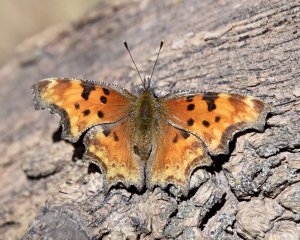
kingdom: Animalia
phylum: Arthropoda
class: Insecta
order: Lepidoptera
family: Nymphalidae
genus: Polygonia
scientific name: Polygonia gracilis
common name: Hoary Comma
